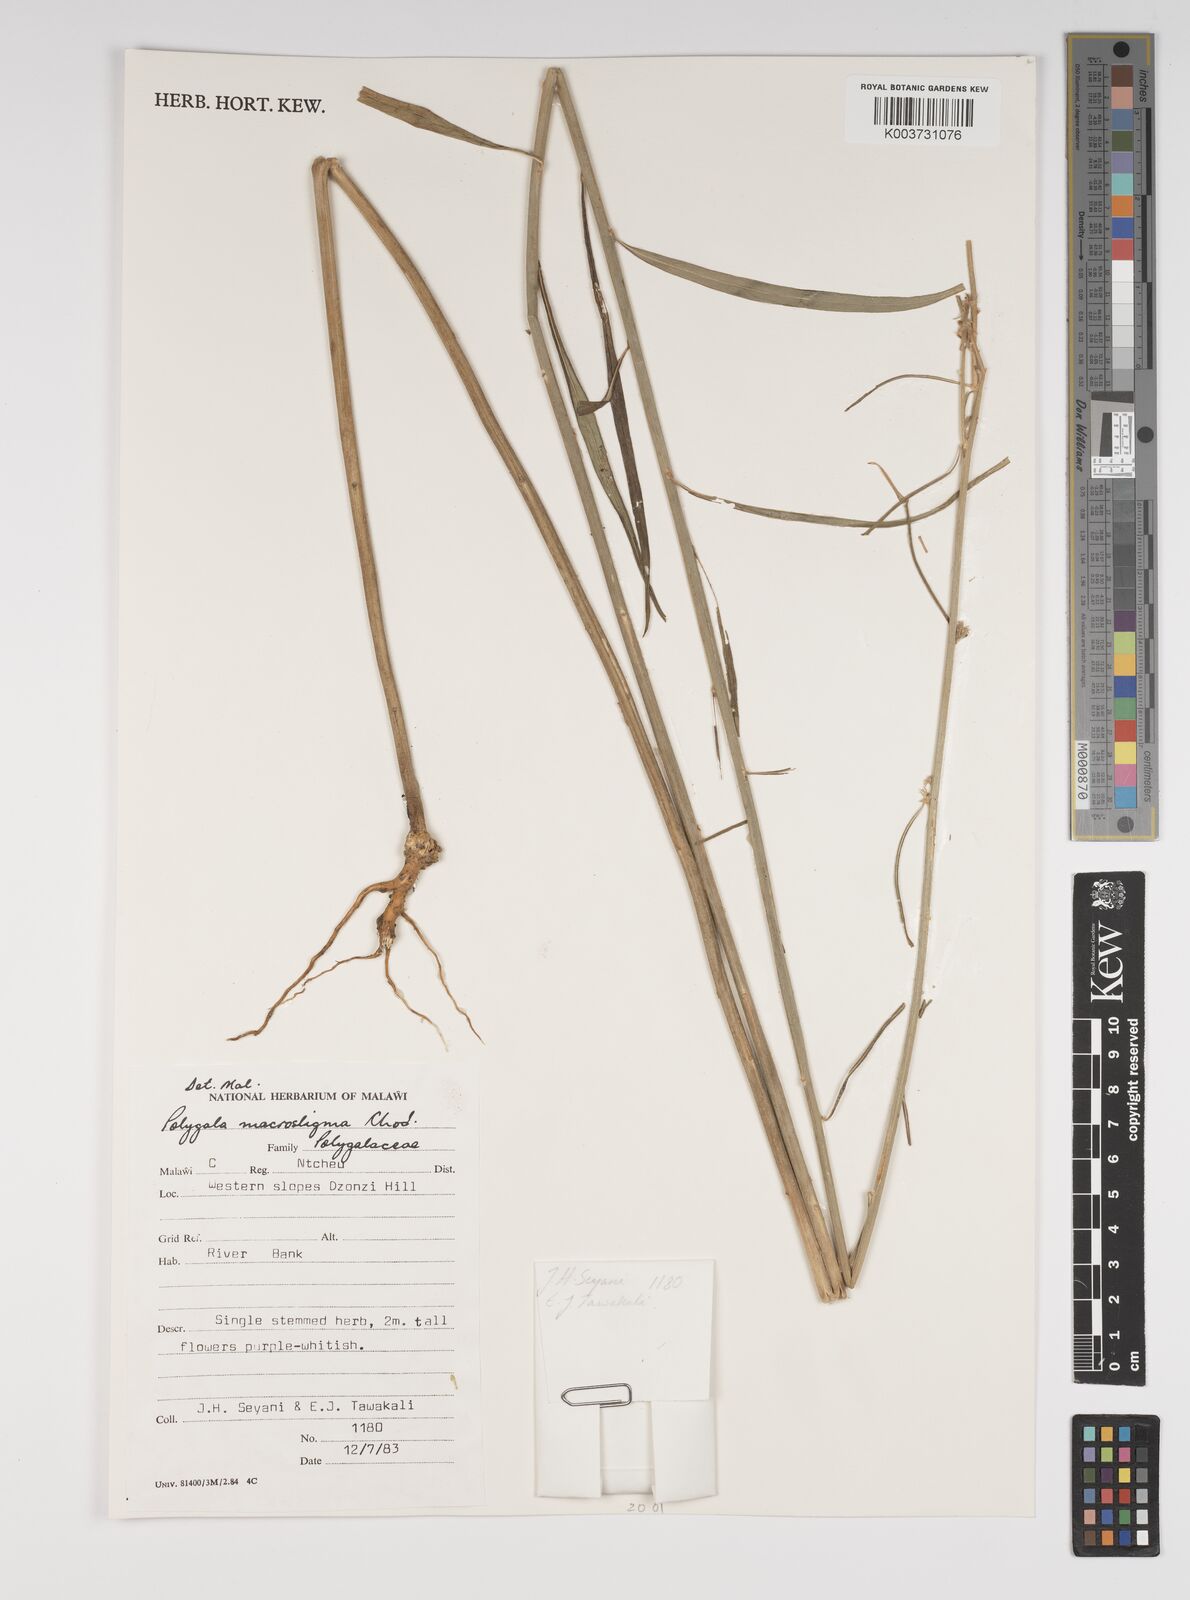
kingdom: Plantae
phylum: Tracheophyta
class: Magnoliopsida
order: Fabales
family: Polygalaceae
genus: Polygala
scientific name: Polygala macrostigma
